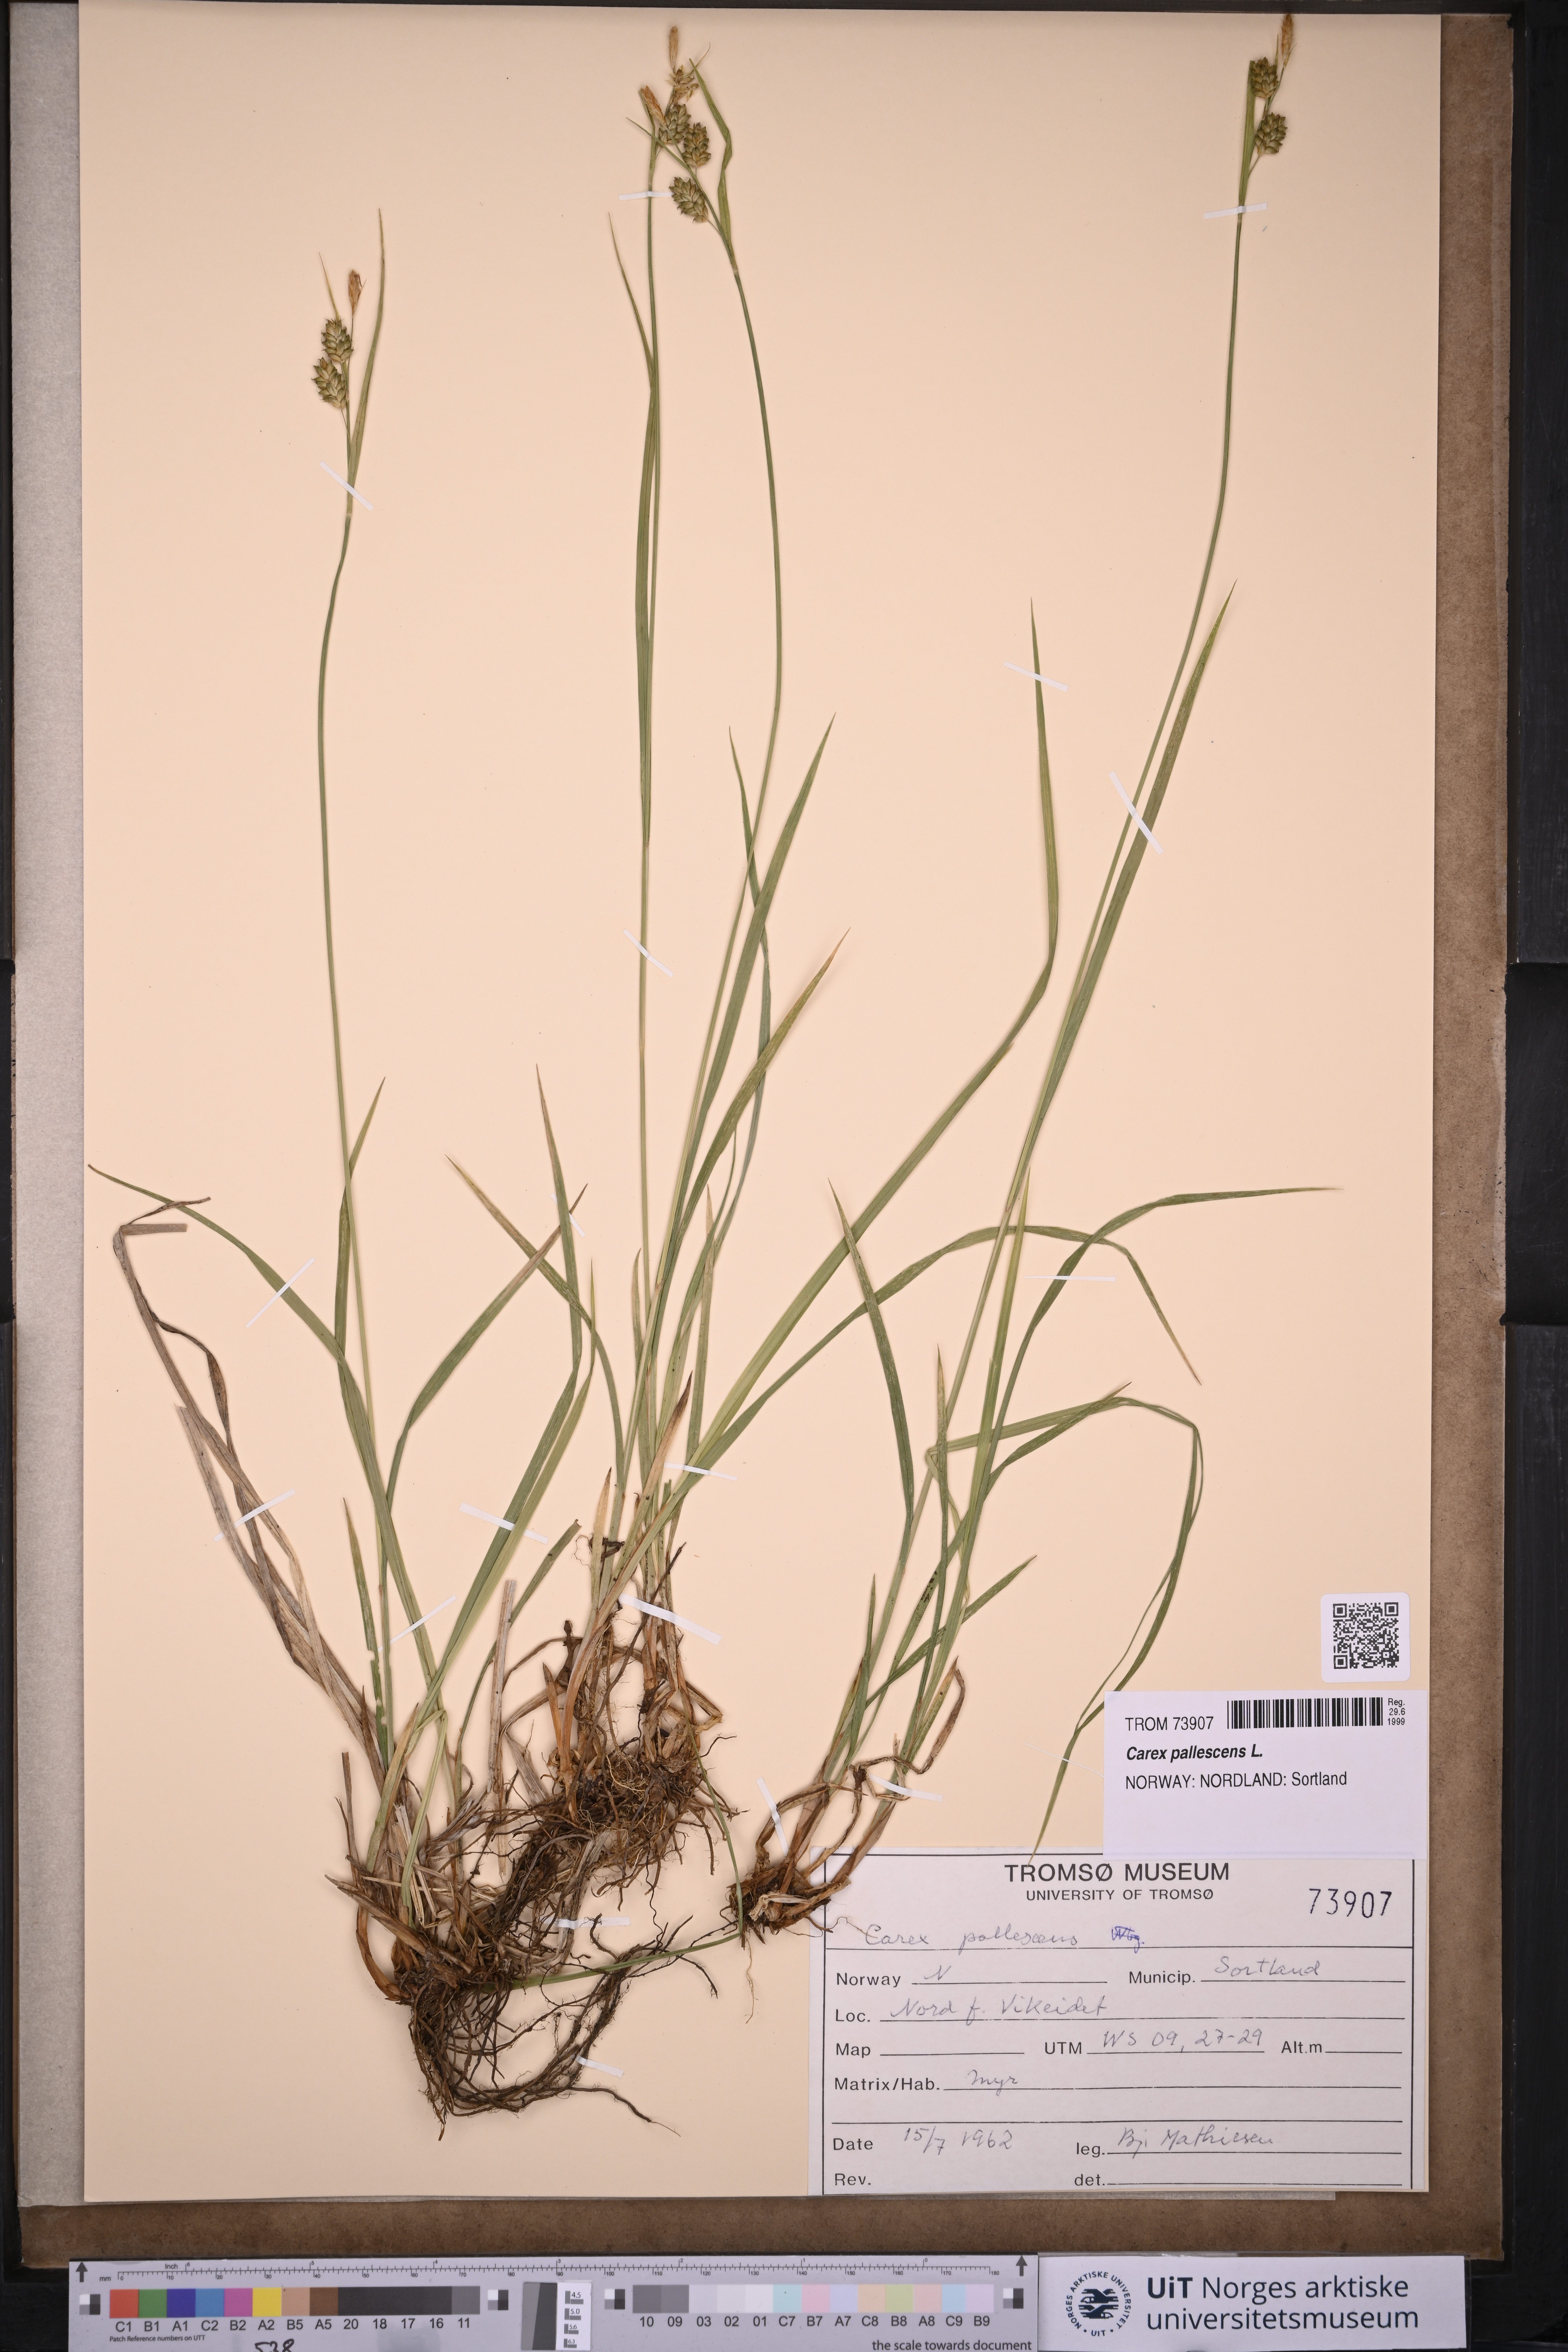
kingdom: Plantae
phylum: Tracheophyta
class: Liliopsida
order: Poales
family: Cyperaceae
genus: Carex
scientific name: Carex pallescens
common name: Pale sedge
